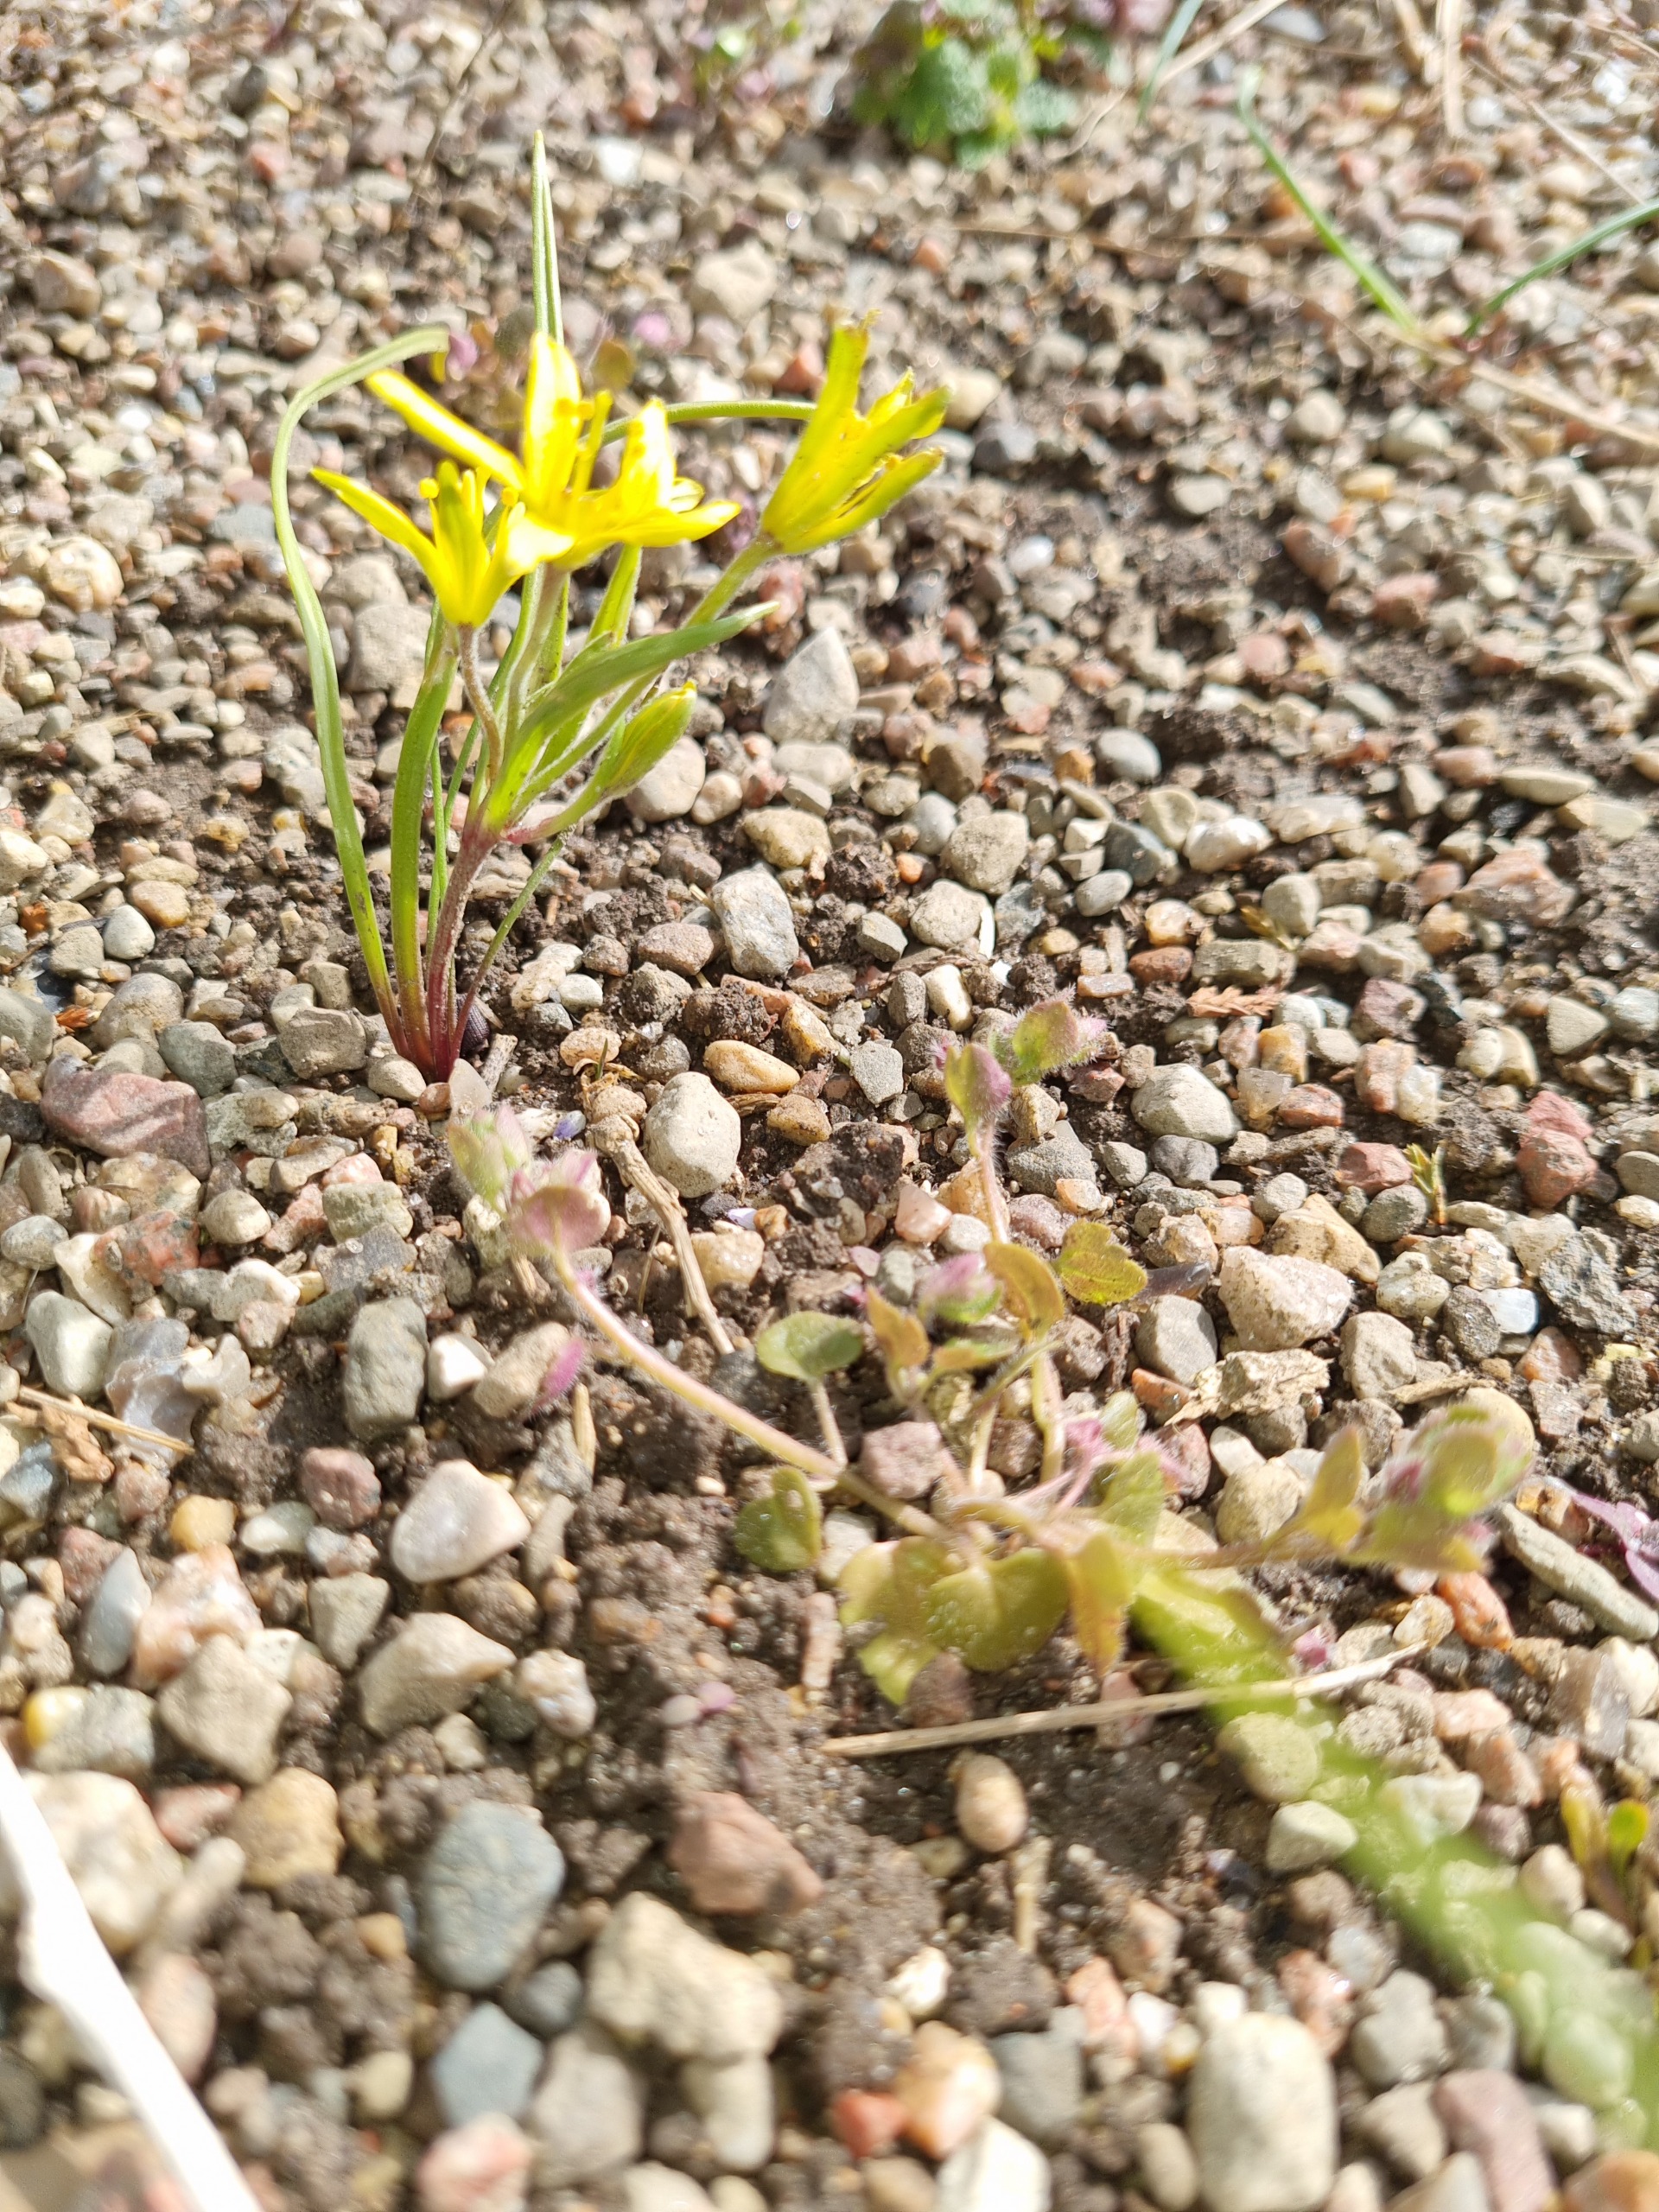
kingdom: Plantae
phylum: Tracheophyta
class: Liliopsida
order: Liliales
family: Liliaceae
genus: Gagea
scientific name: Gagea villosa
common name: Ager-guldstjerne
